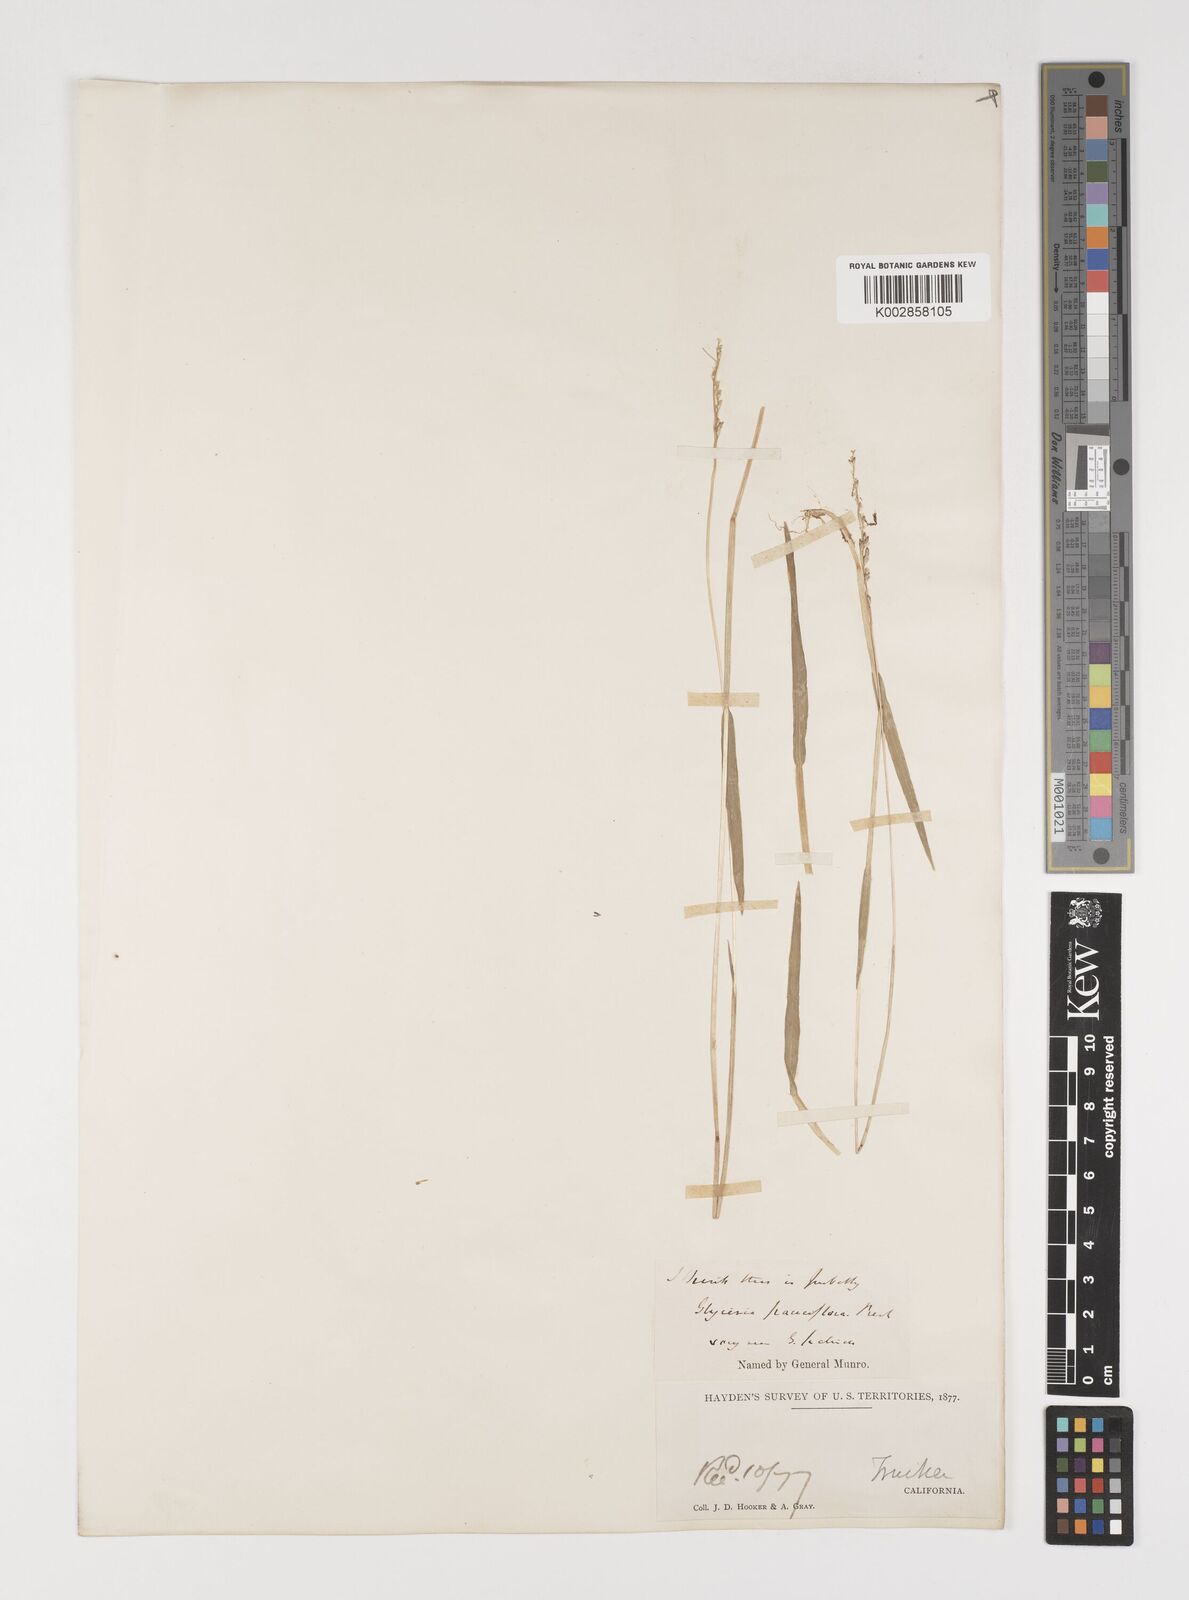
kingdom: Plantae
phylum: Tracheophyta
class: Liliopsida
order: Poales
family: Poaceae
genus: Torreyochloa
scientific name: Torreyochloa erecta
